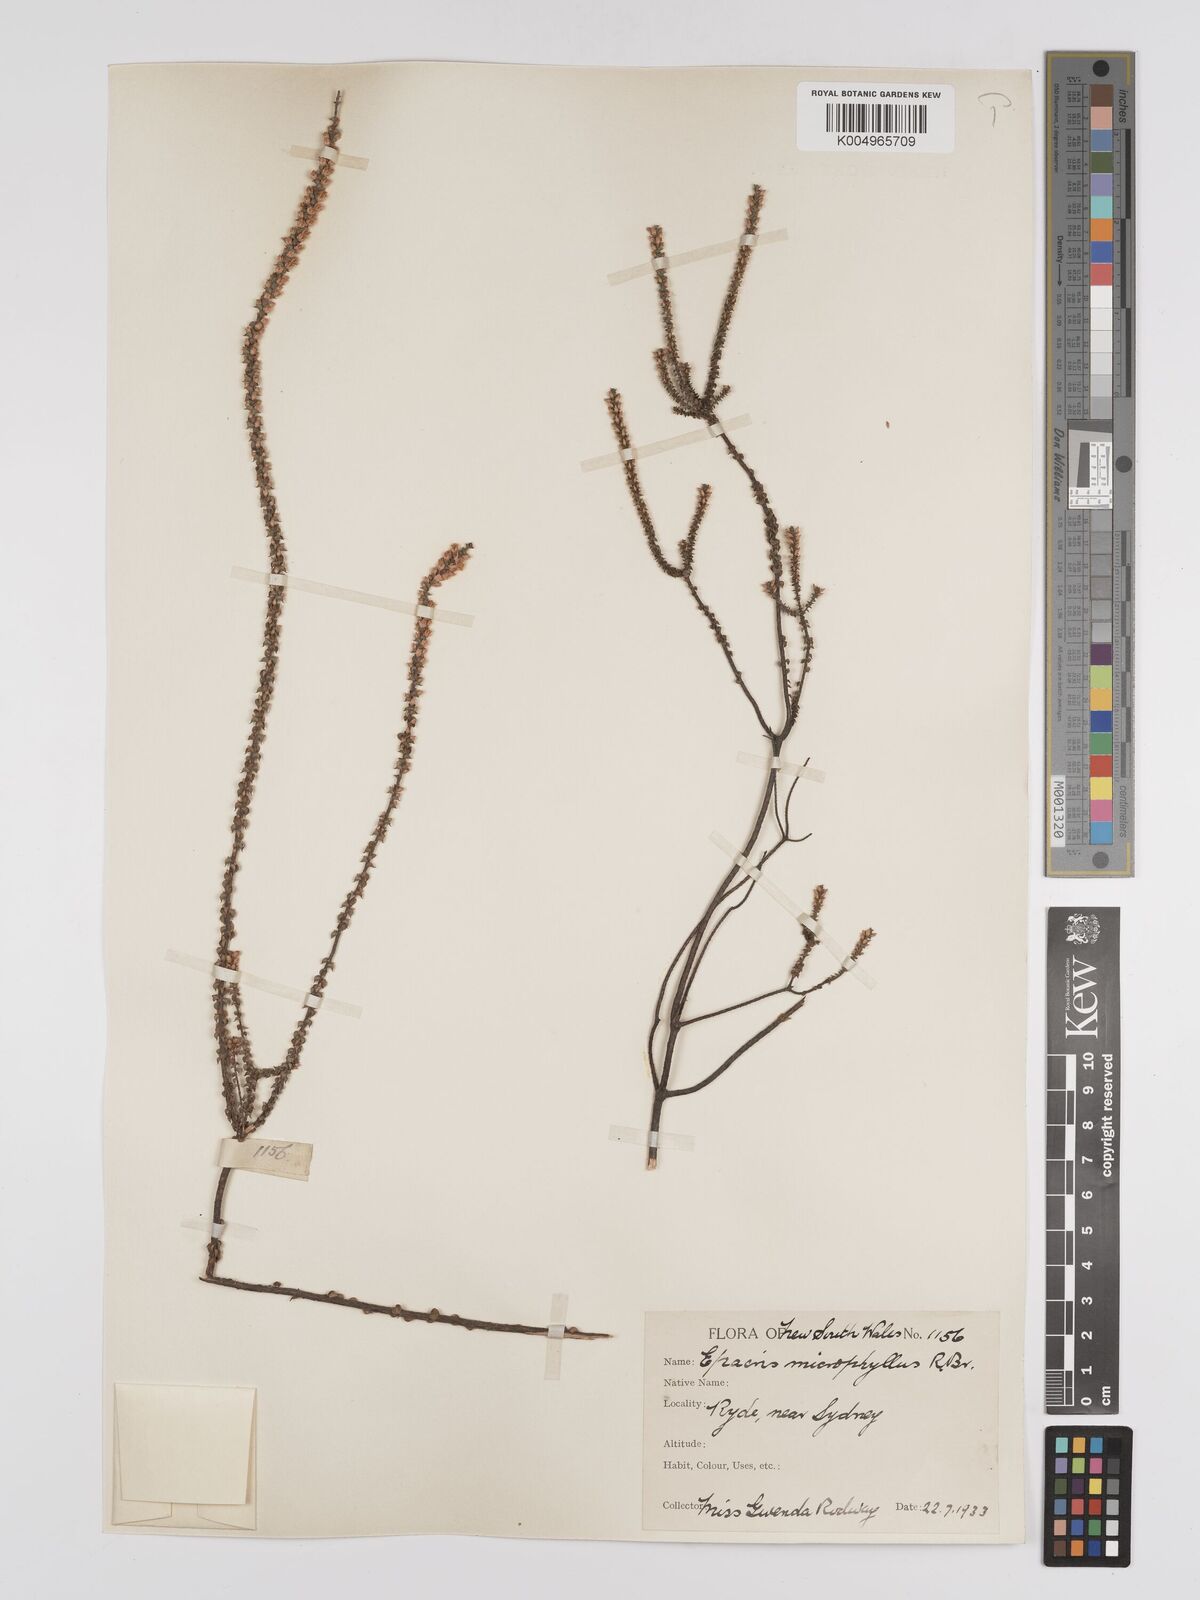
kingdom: Plantae
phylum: Tracheophyta
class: Magnoliopsida
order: Ericales
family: Ericaceae
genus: Epacris
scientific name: Epacris
